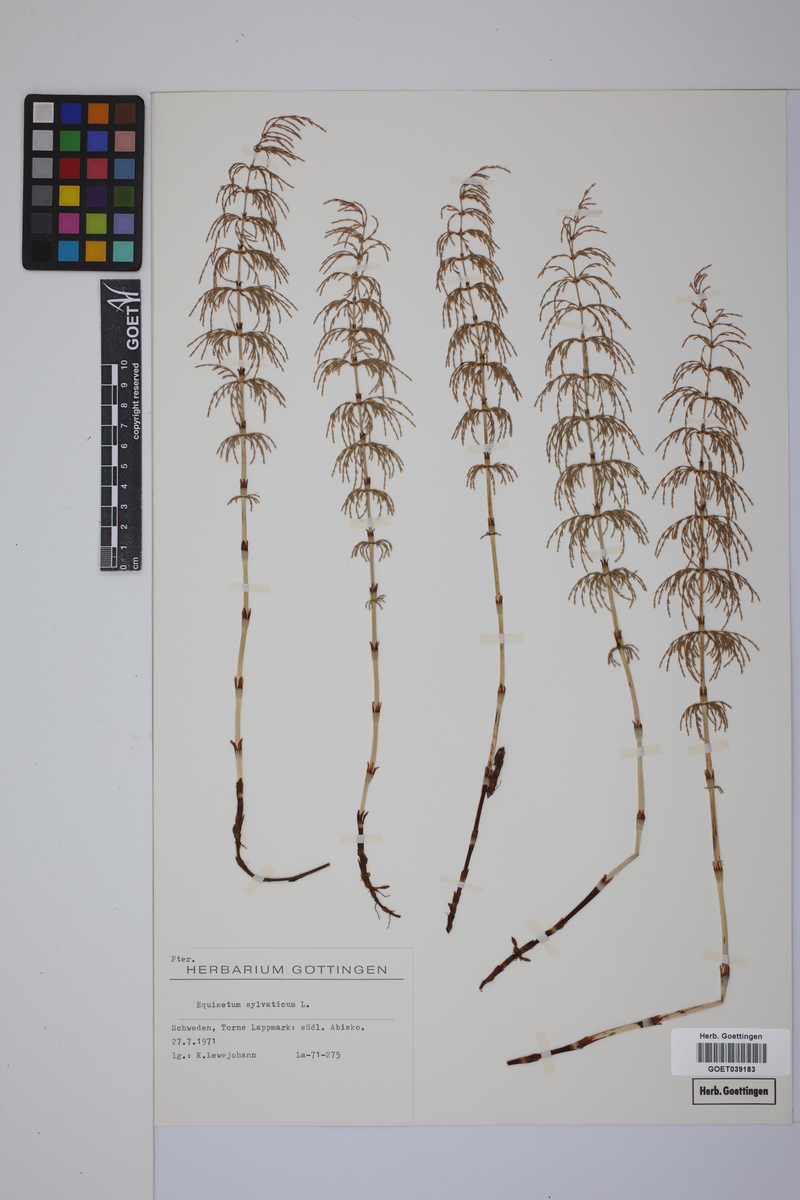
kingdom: Plantae
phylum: Tracheophyta
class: Polypodiopsida
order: Equisetales
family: Equisetaceae
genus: Equisetum
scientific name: Equisetum sylvaticum
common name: Wood horsetail
